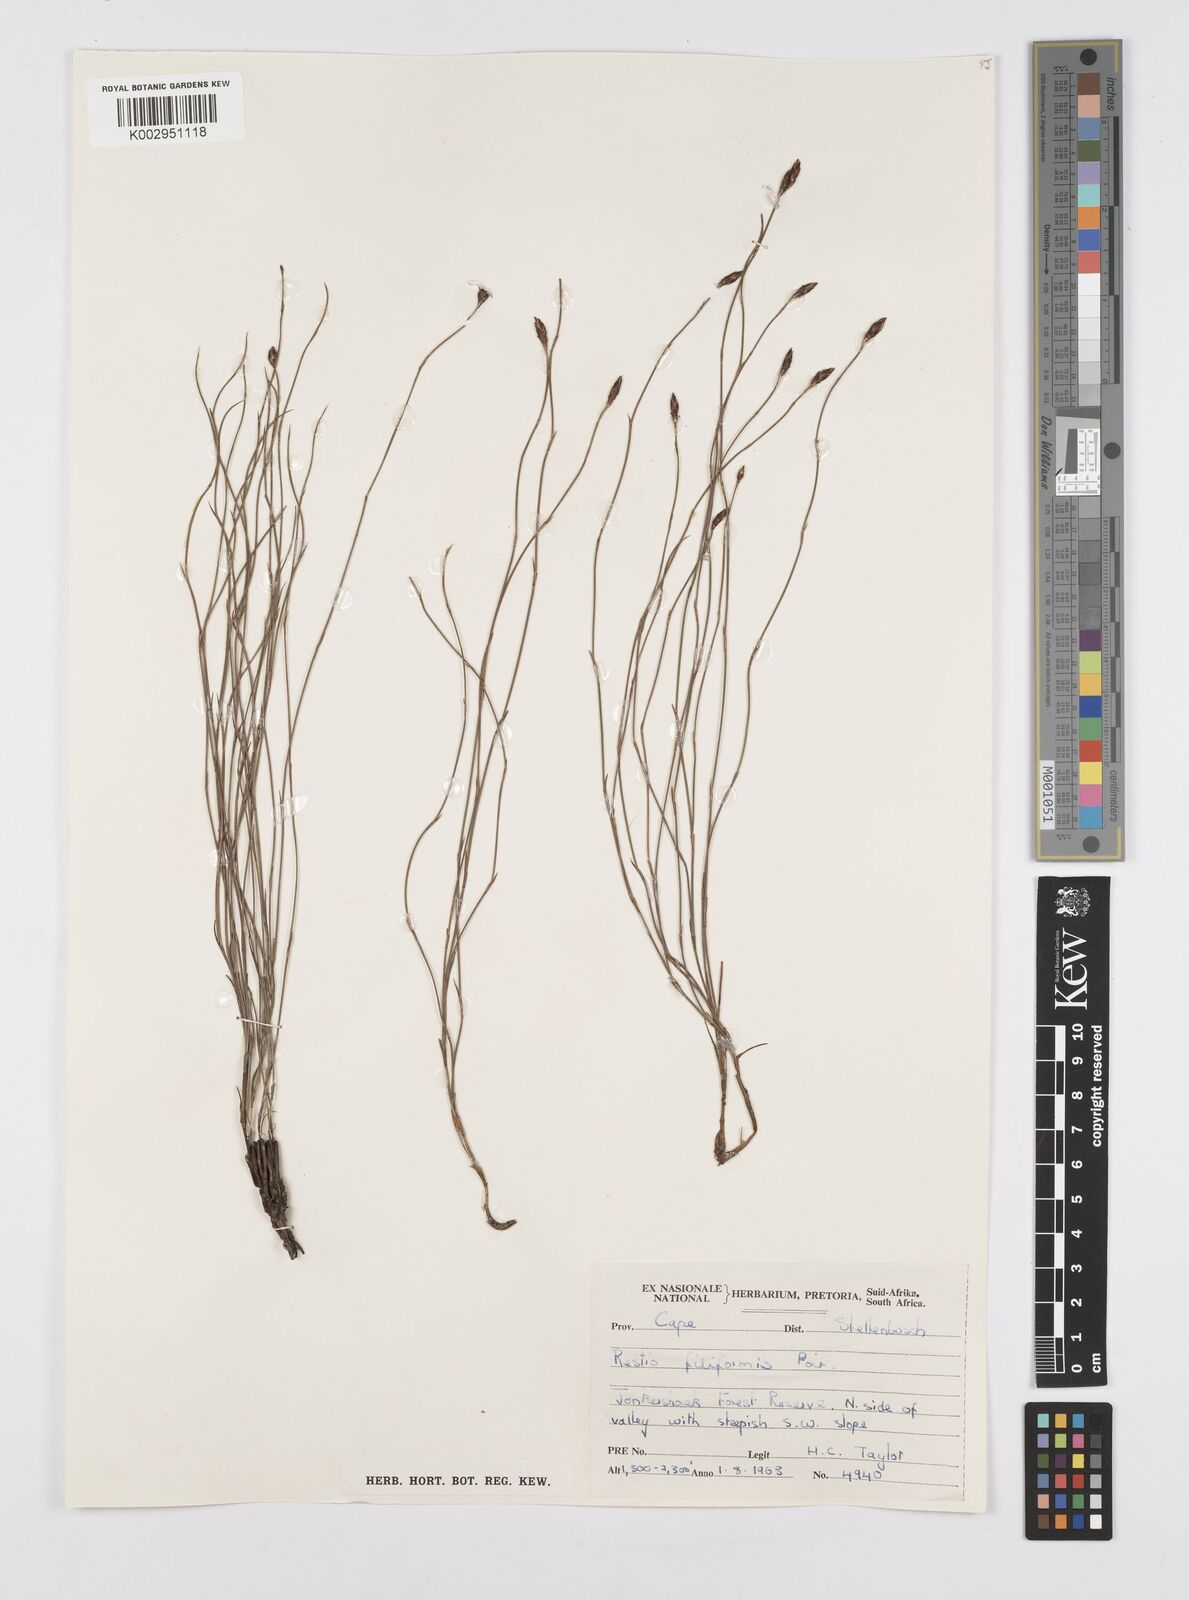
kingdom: Plantae
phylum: Tracheophyta
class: Liliopsida
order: Poales
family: Restionaceae
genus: Restio
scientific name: Restio filiformis
